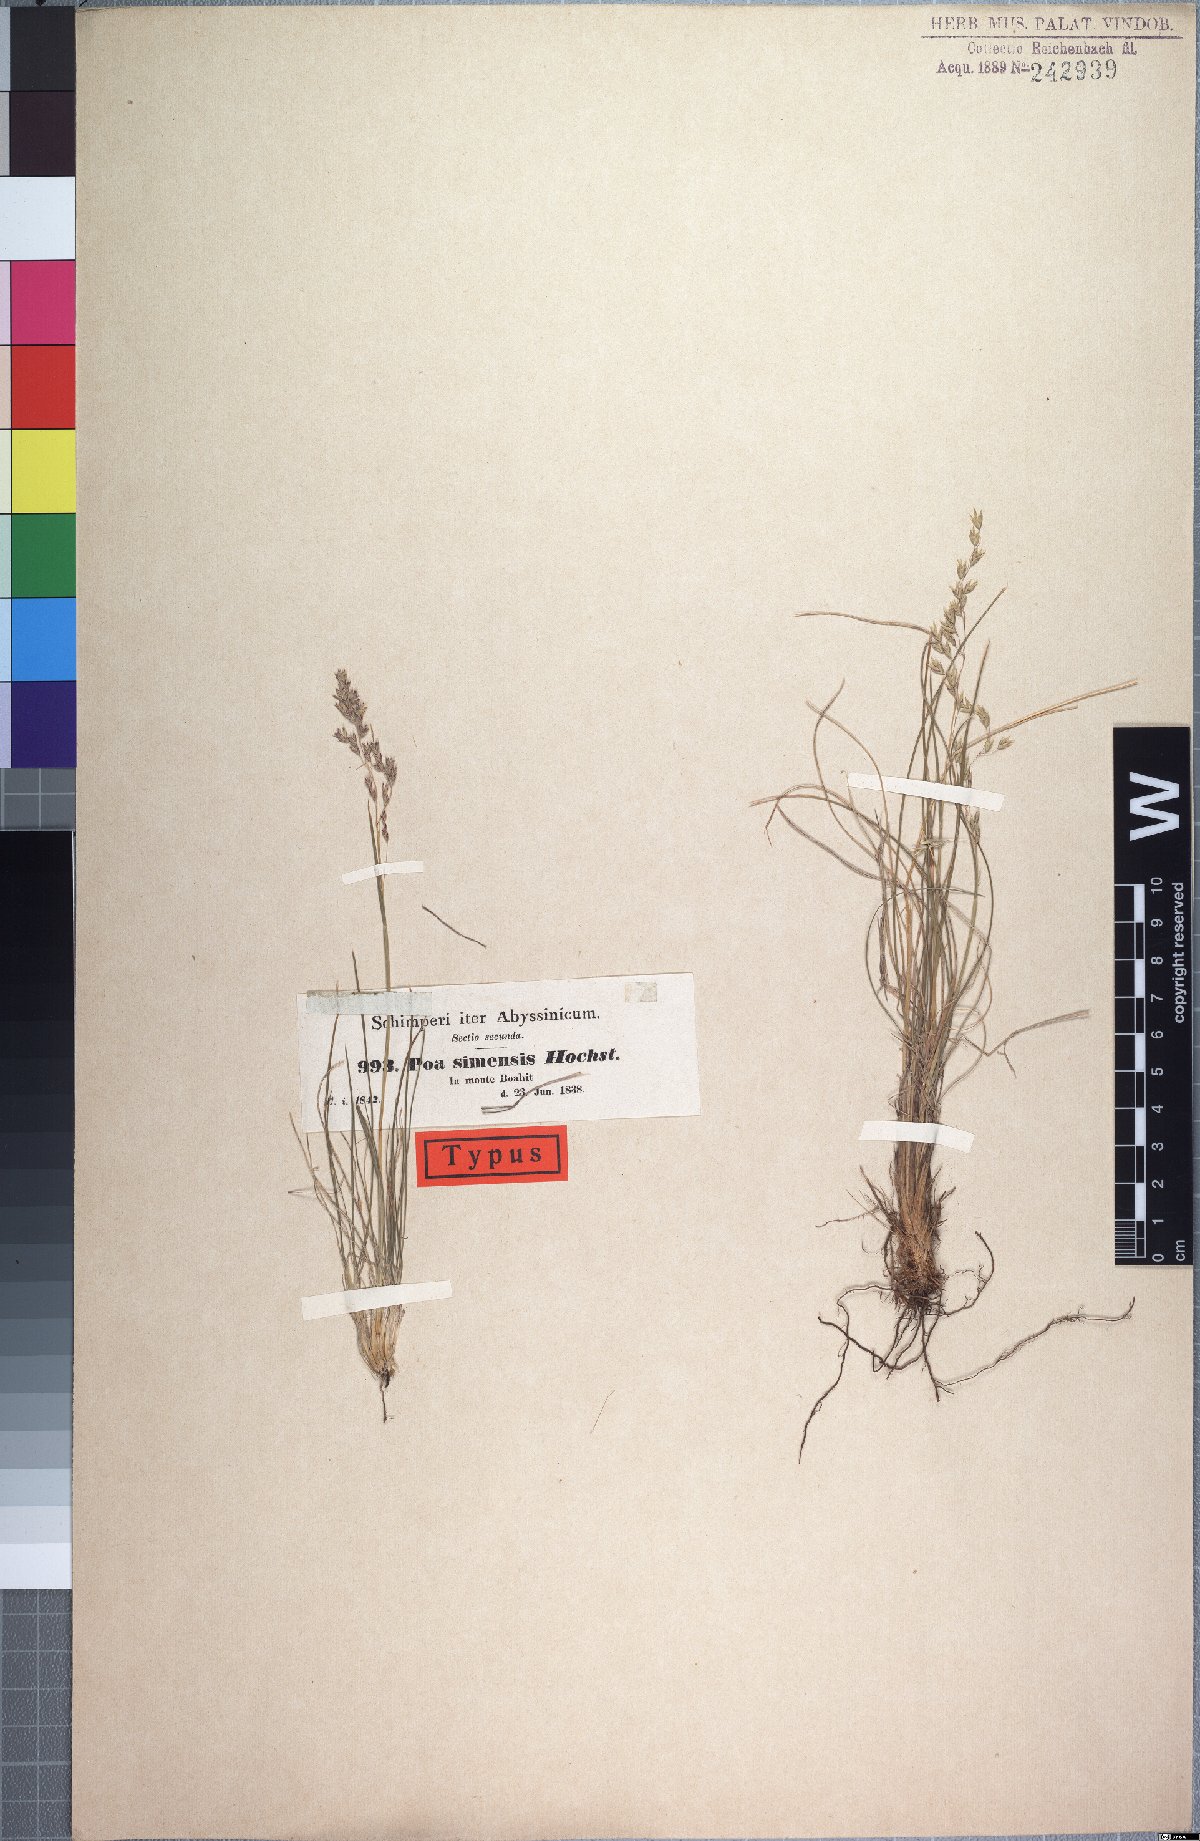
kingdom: Plantae
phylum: Tracheophyta
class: Liliopsida
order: Poales
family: Poaceae
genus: Poa
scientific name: Poa simensis
